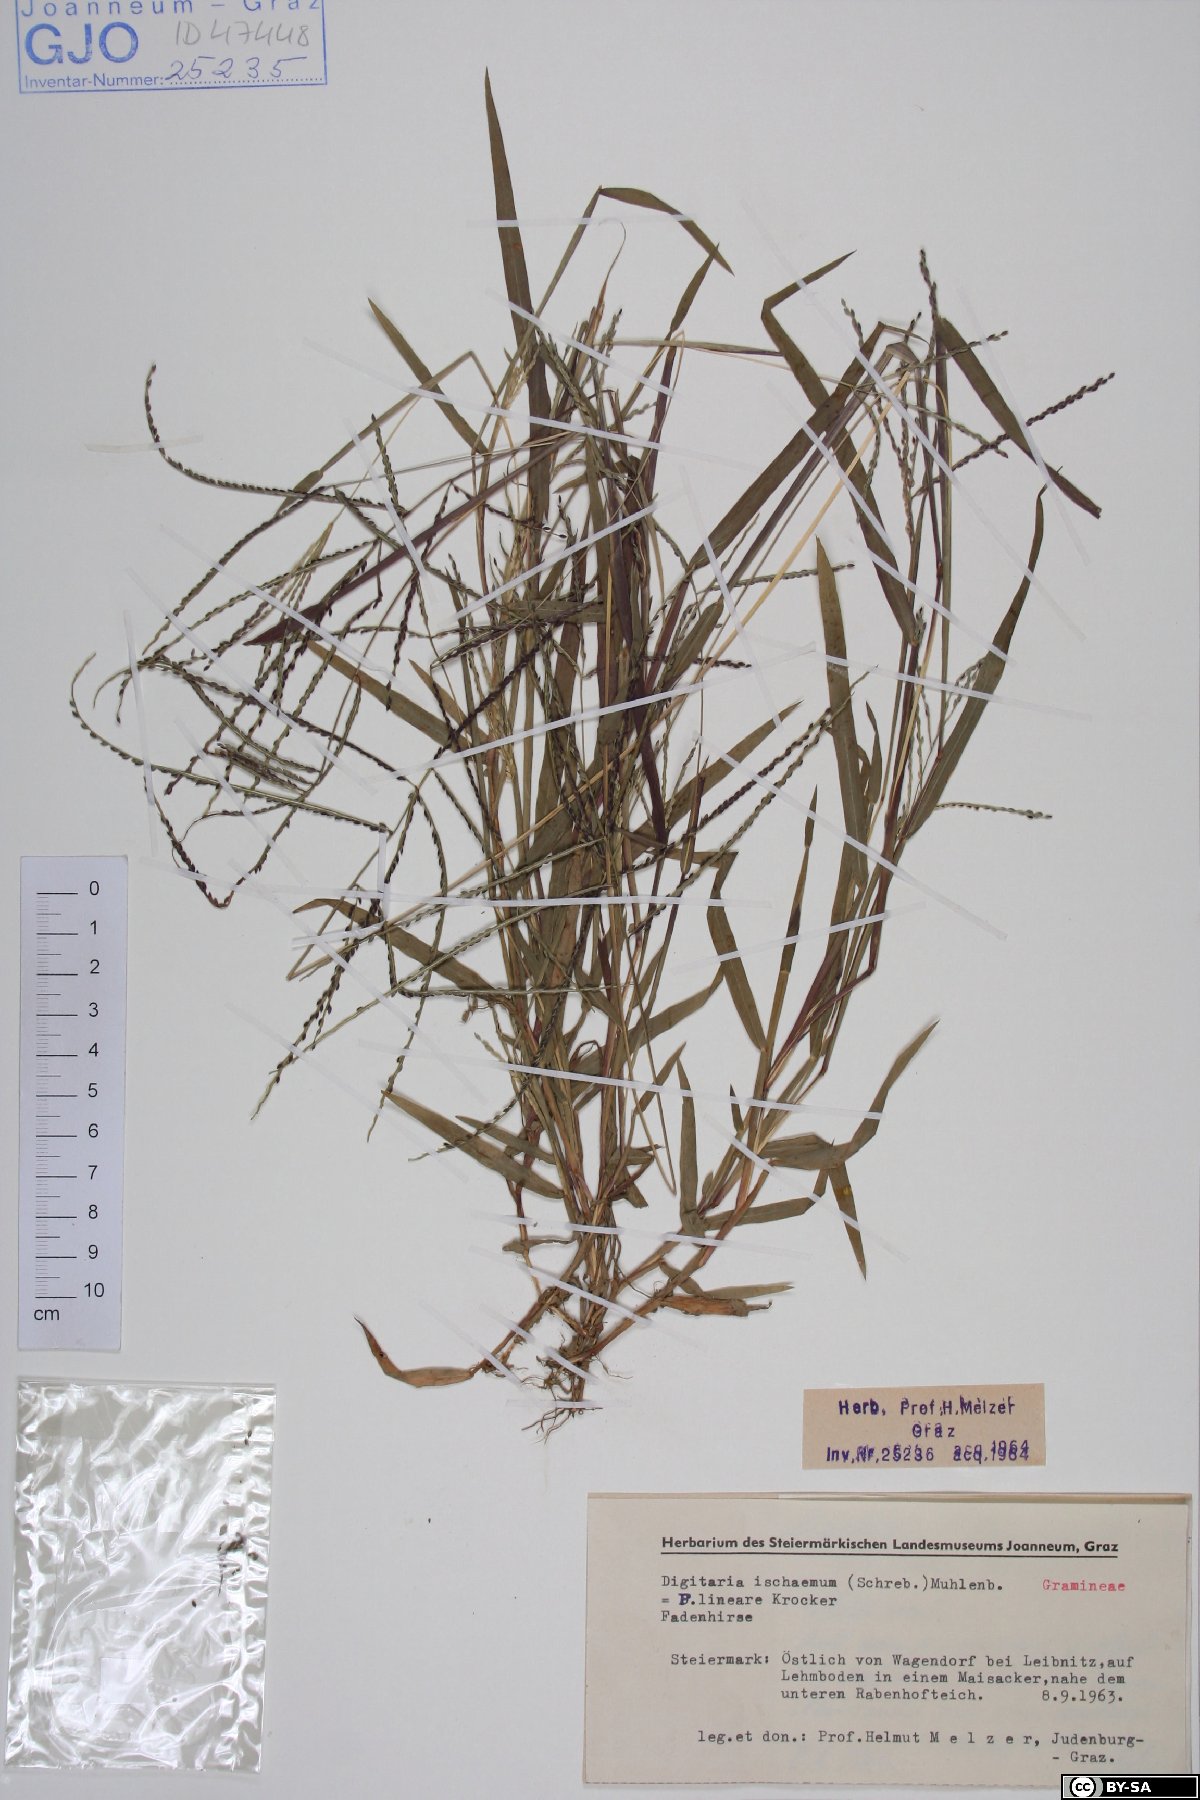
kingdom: Plantae
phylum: Tracheophyta
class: Liliopsida
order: Poales
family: Poaceae
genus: Digitaria
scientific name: Digitaria ischaemum
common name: Smooth crabgrass
